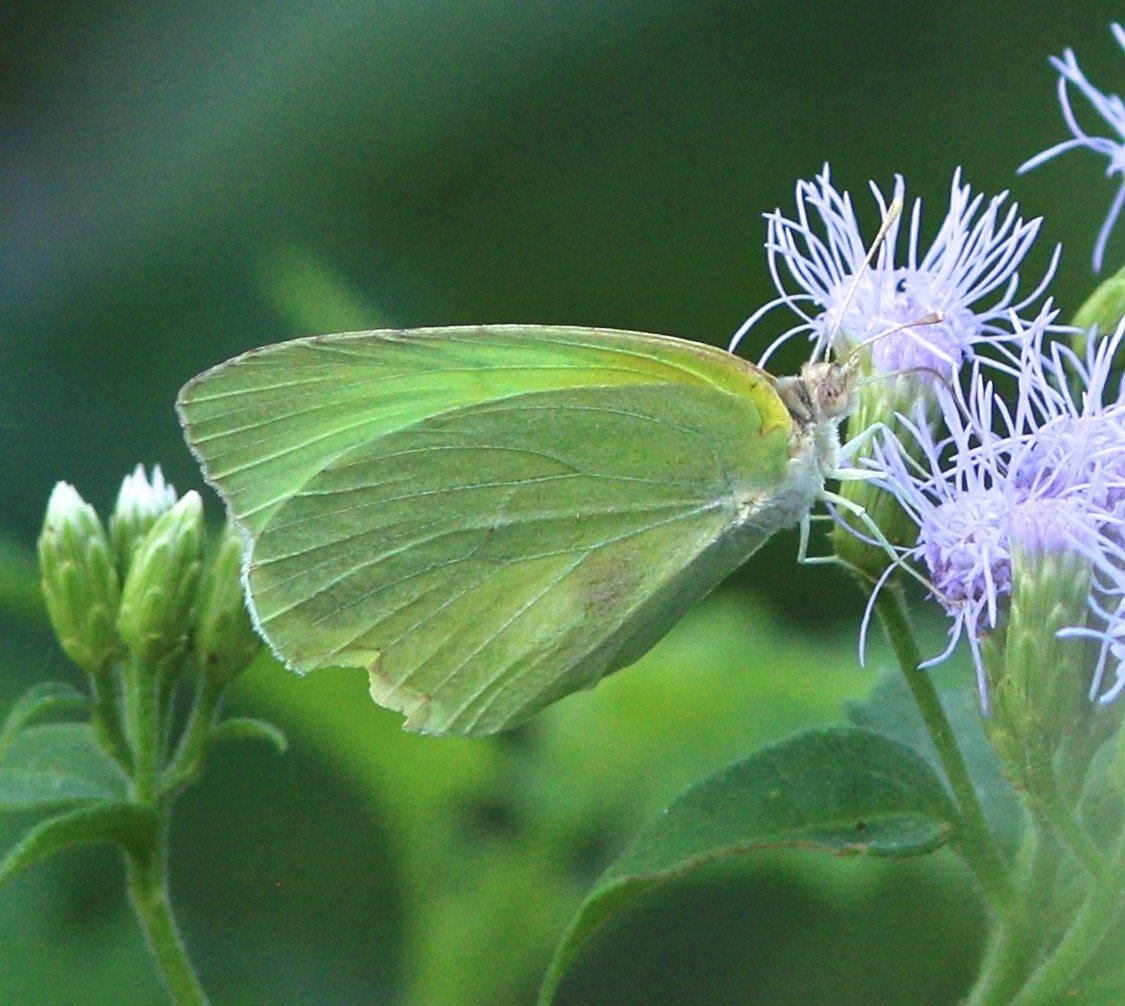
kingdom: Animalia
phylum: Arthropoda
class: Insecta
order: Lepidoptera
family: Pieridae
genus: Kricogonia
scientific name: Kricogonia lyside
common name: Lyside Sulphur
